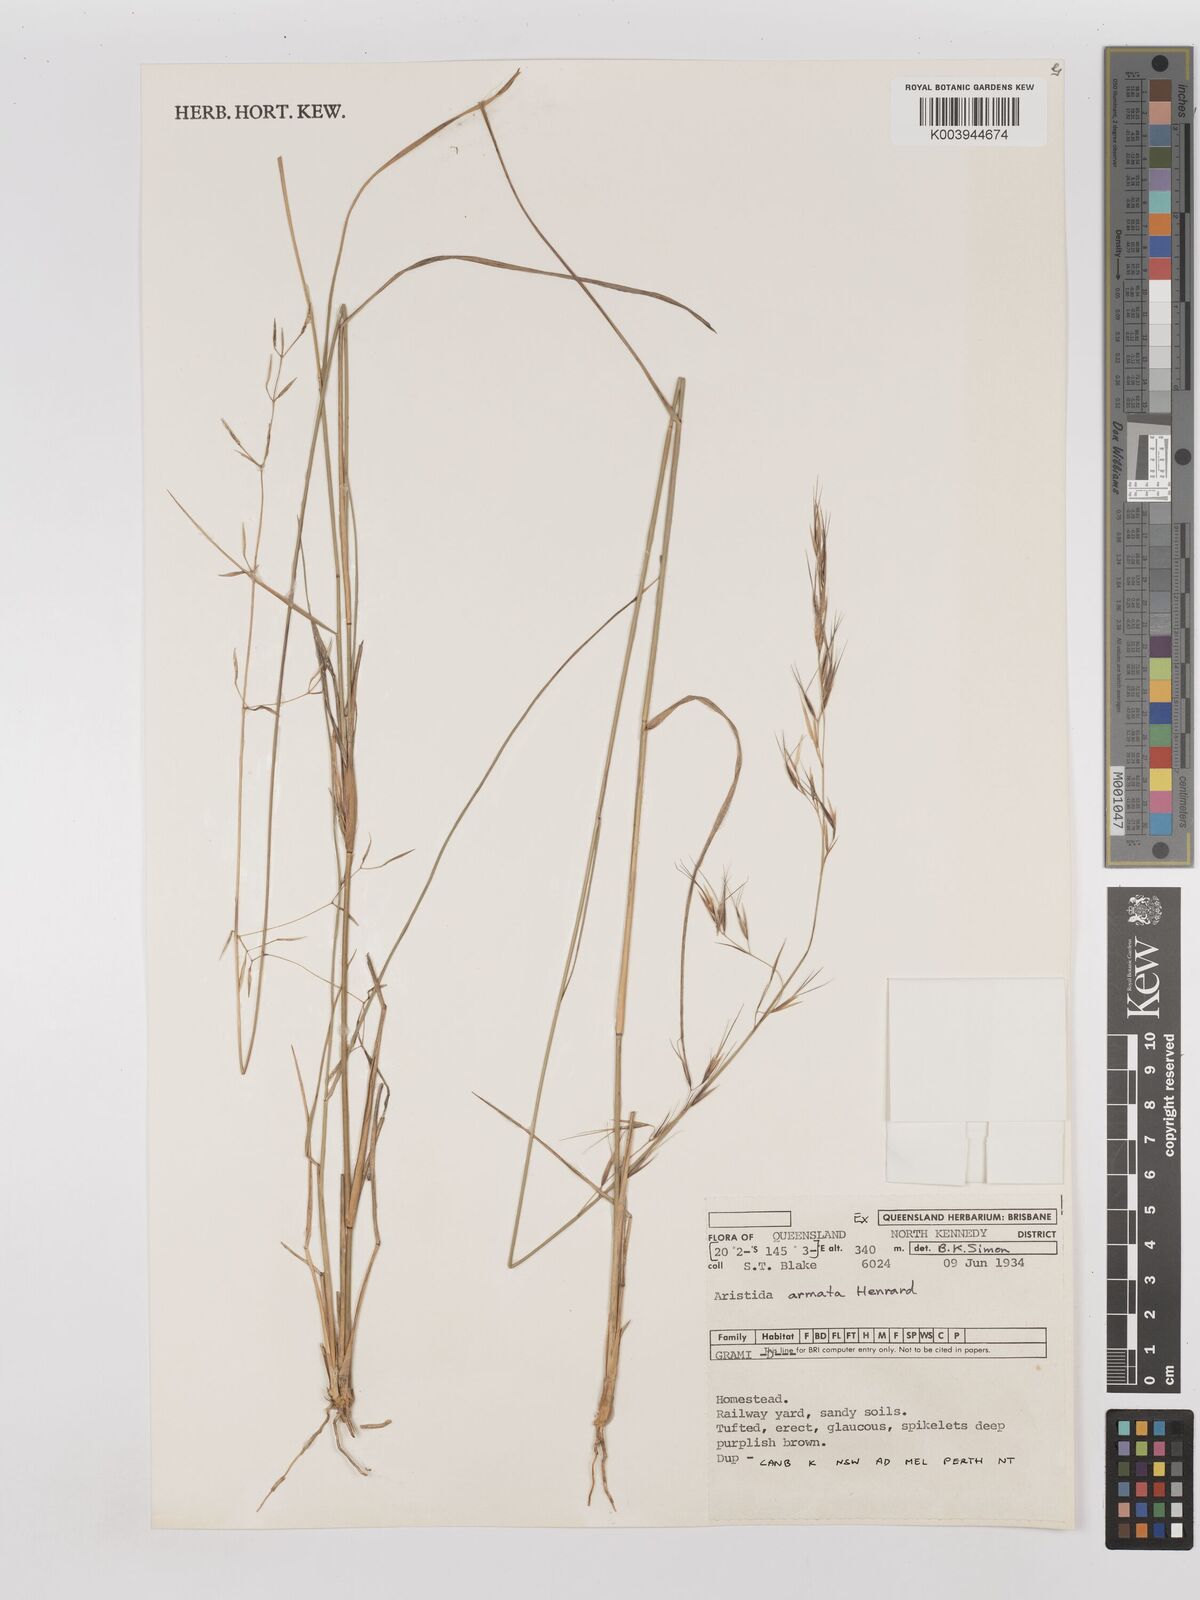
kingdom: Plantae
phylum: Tracheophyta
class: Liliopsida
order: Poales
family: Poaceae
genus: Aristida
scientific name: Aristida calycina
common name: Dark wire grass
